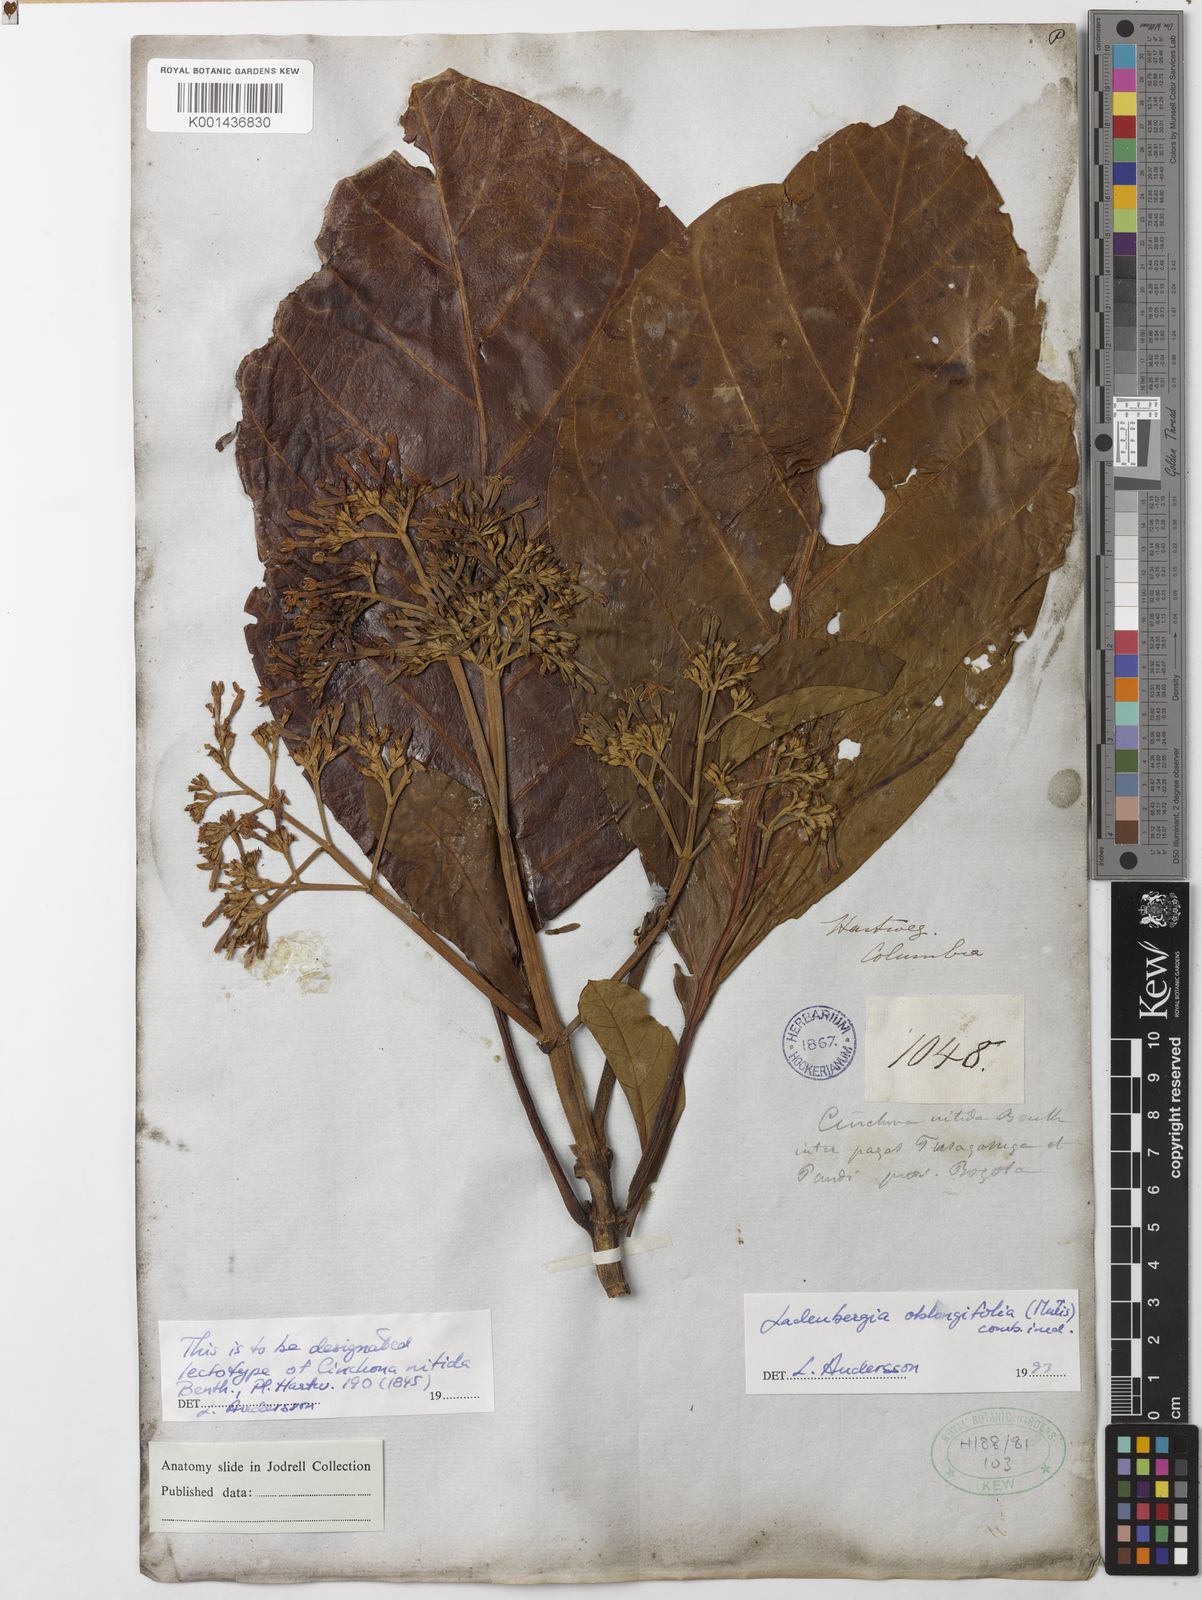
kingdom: Plantae
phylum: Tracheophyta
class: Magnoliopsida
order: Gentianales
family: Rubiaceae
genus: Ladenbergia
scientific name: Ladenbergia oblongifolia
